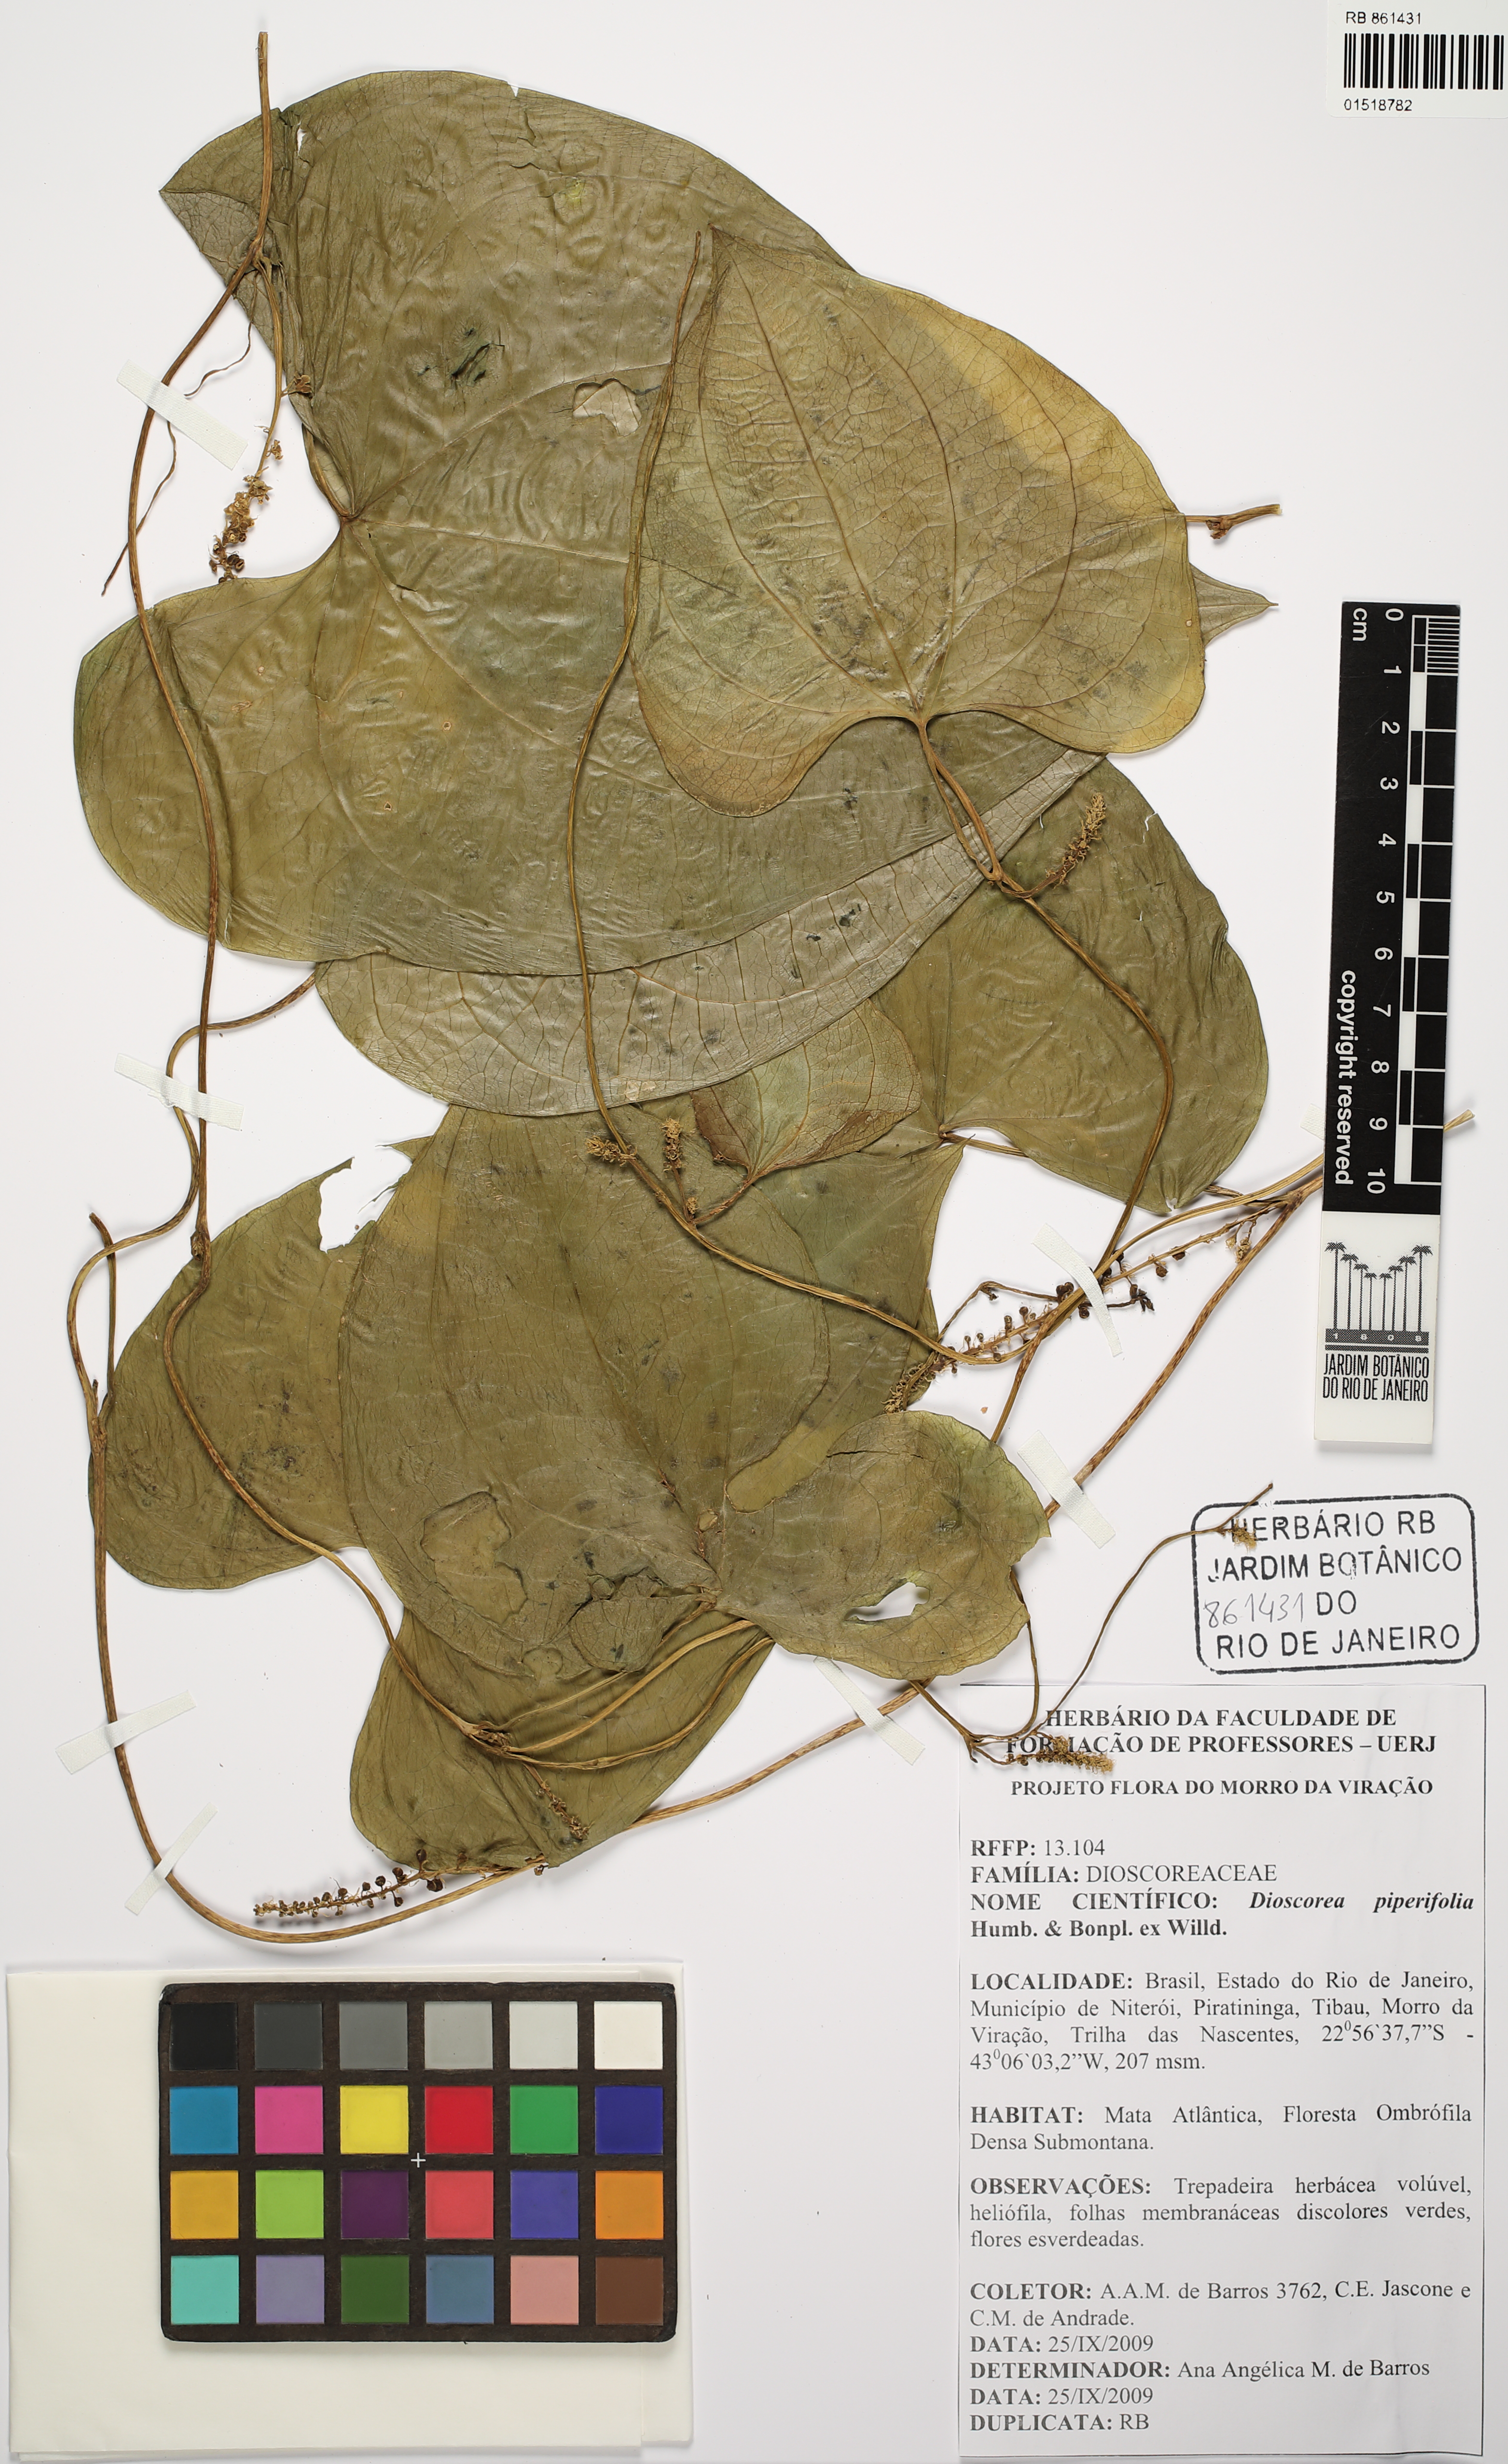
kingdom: Plantae
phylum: Tracheophyta
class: Liliopsida
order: Dioscoreales
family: Dioscoreaceae
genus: Dioscorea
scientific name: Dioscorea piperifolia
